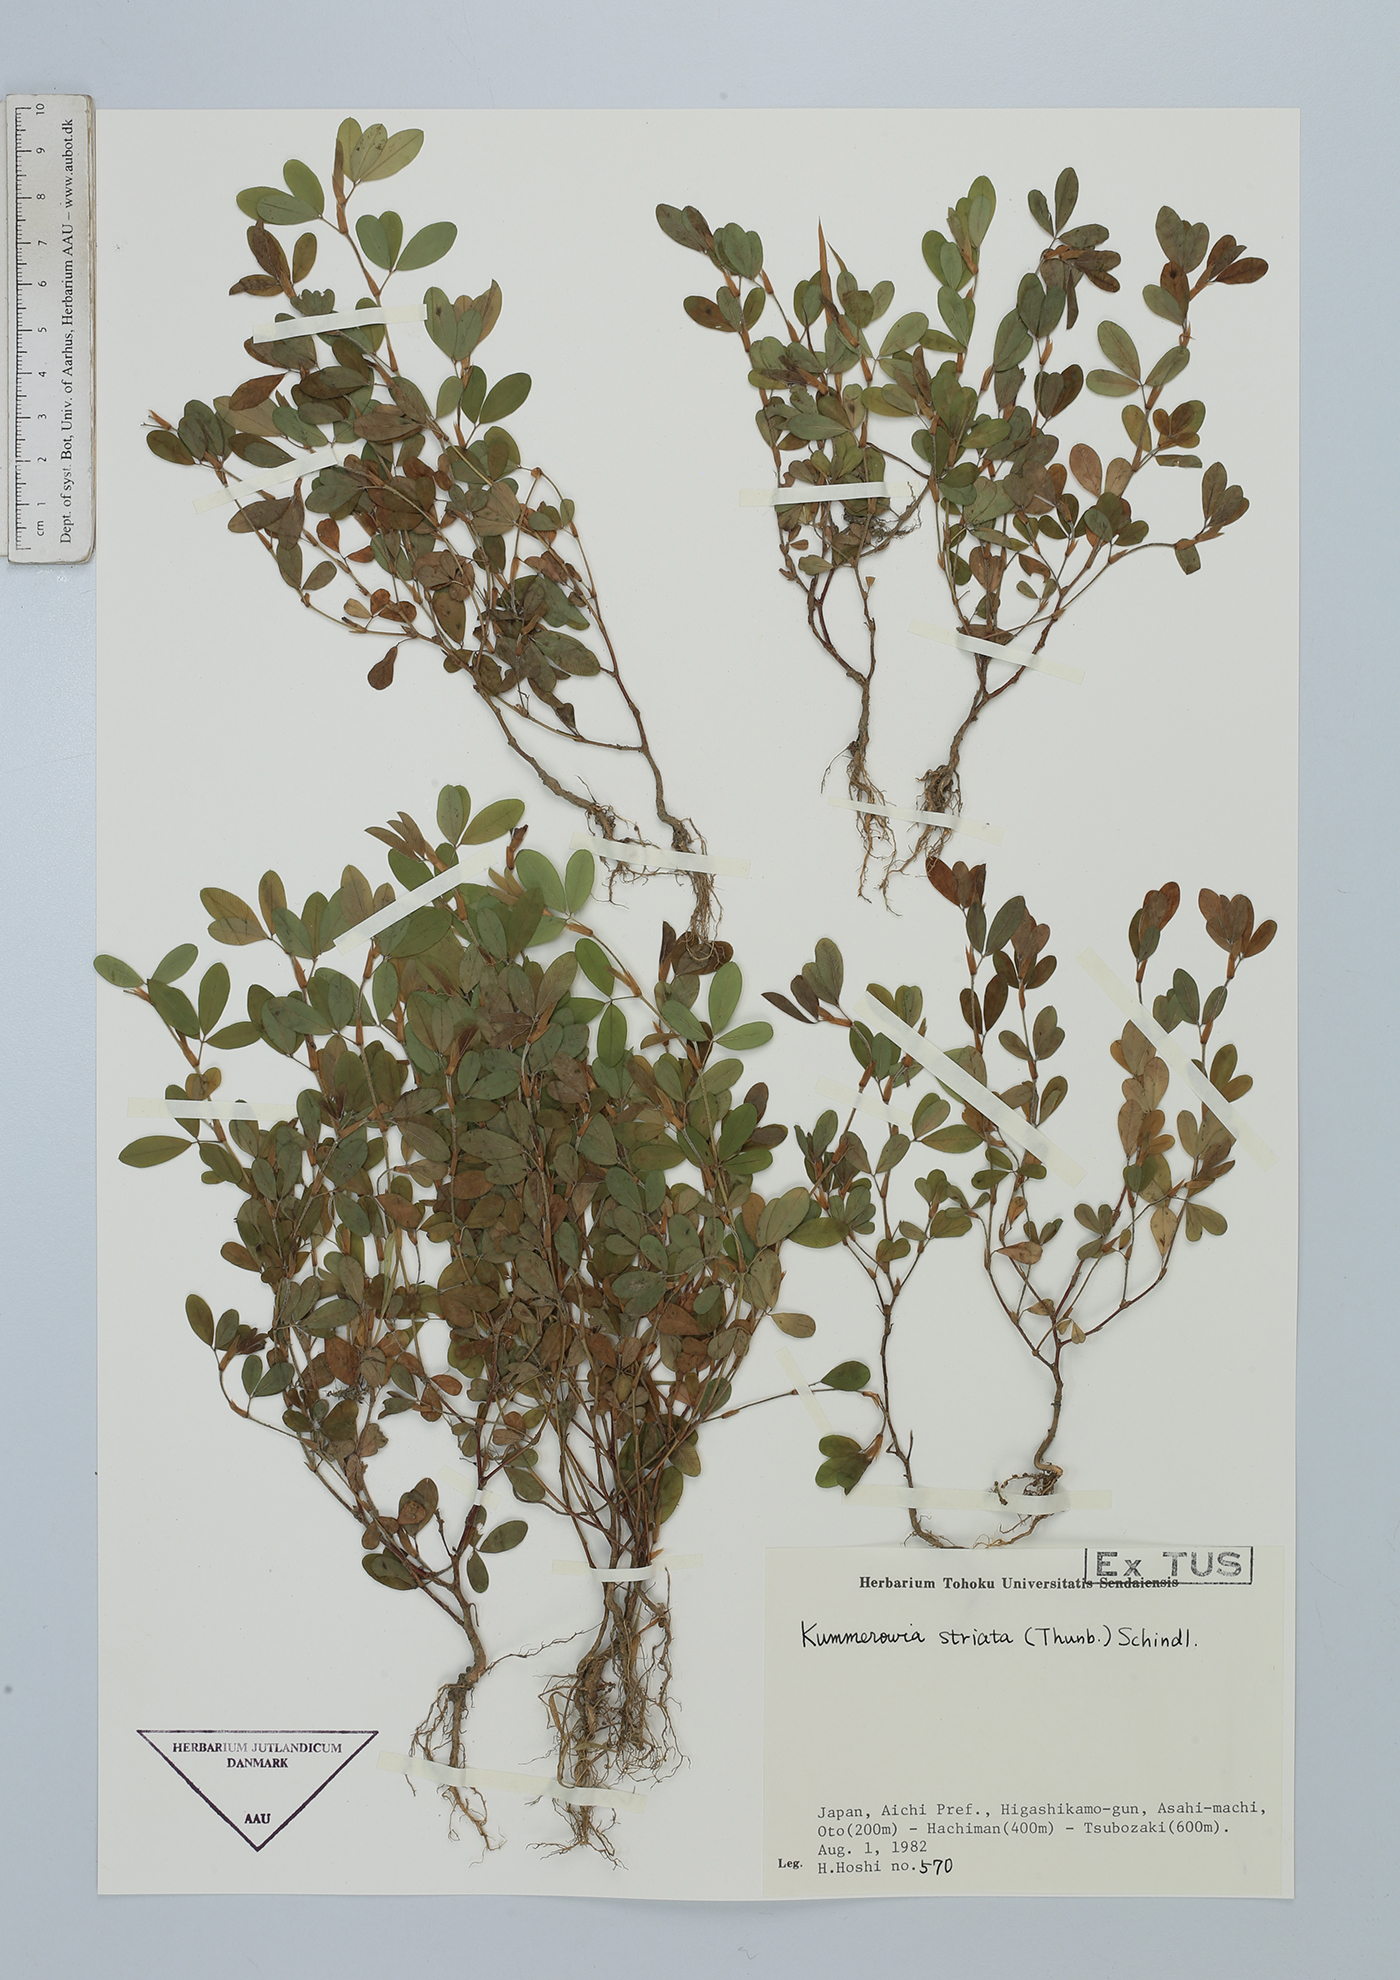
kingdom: Plantae
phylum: Tracheophyta
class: Magnoliopsida
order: Fabales
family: Fabaceae
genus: Kummerowia
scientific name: Kummerowia striata
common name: Japanese clover
